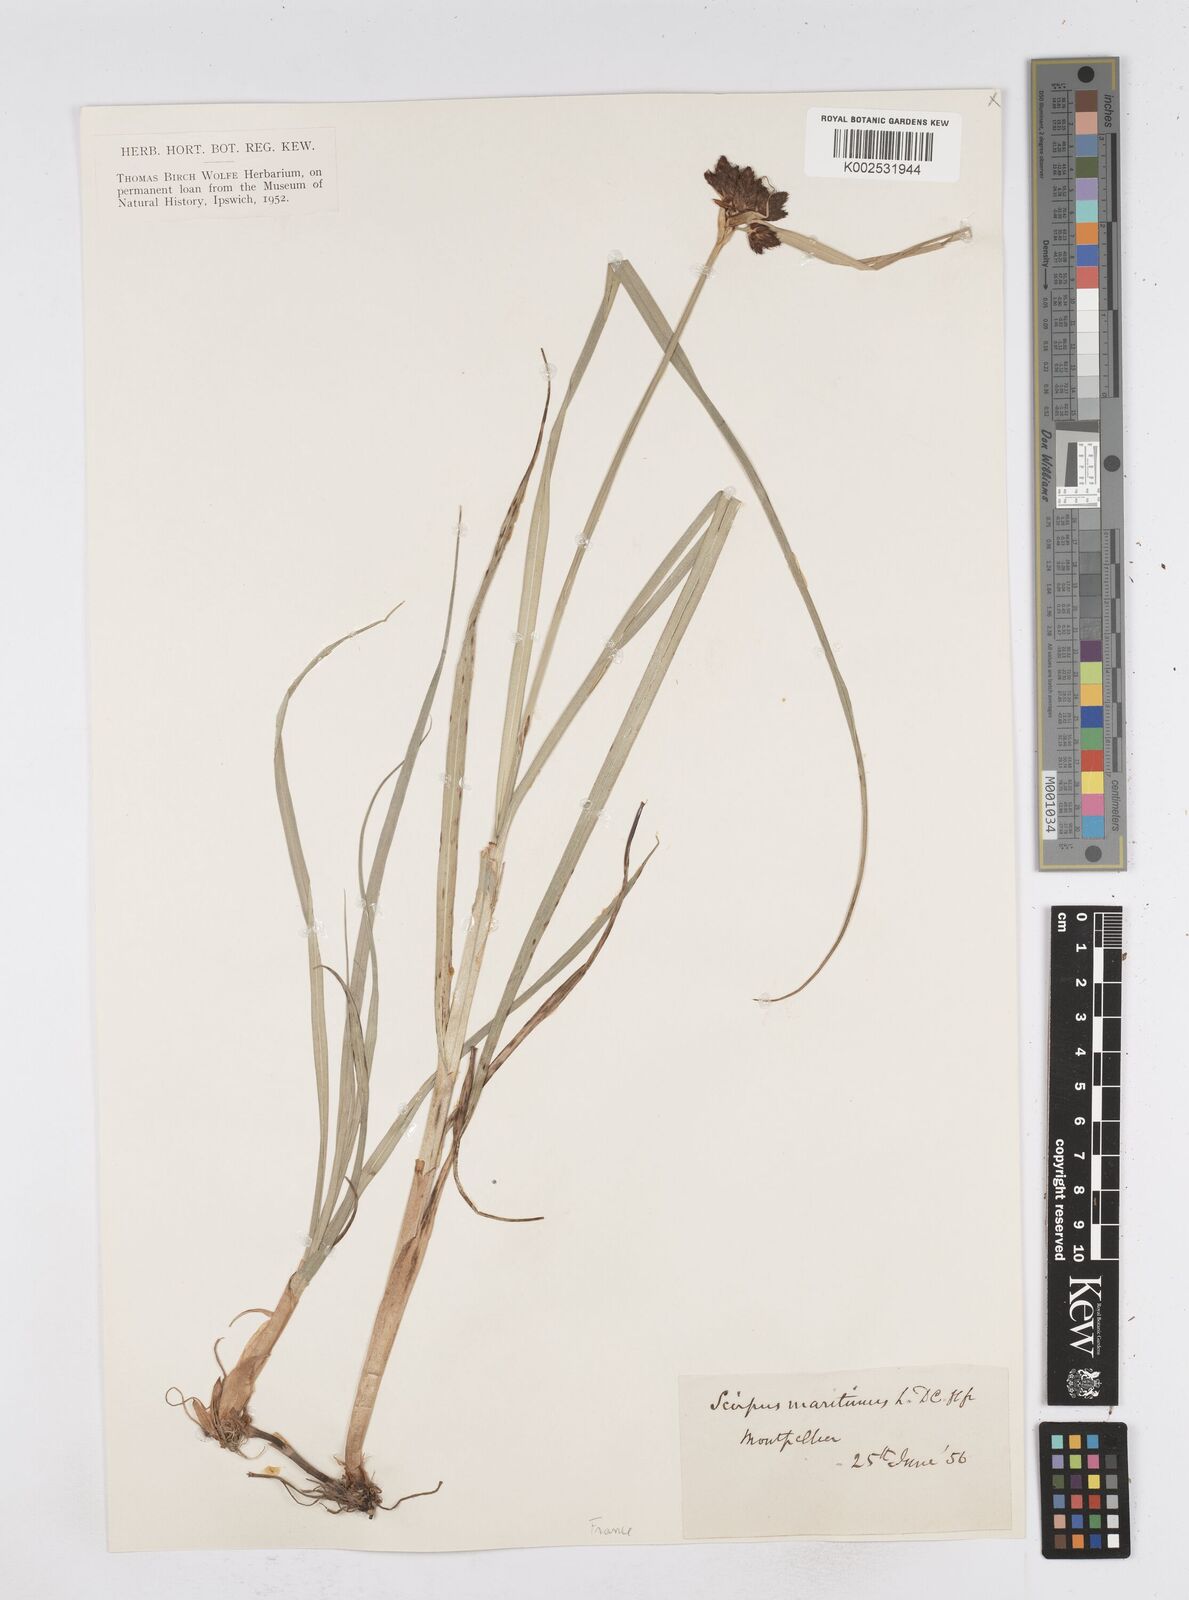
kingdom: Plantae
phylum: Tracheophyta
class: Liliopsida
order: Poales
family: Cyperaceae
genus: Bolboschoenus
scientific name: Bolboschoenus maritimus
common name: Sea club-rush
